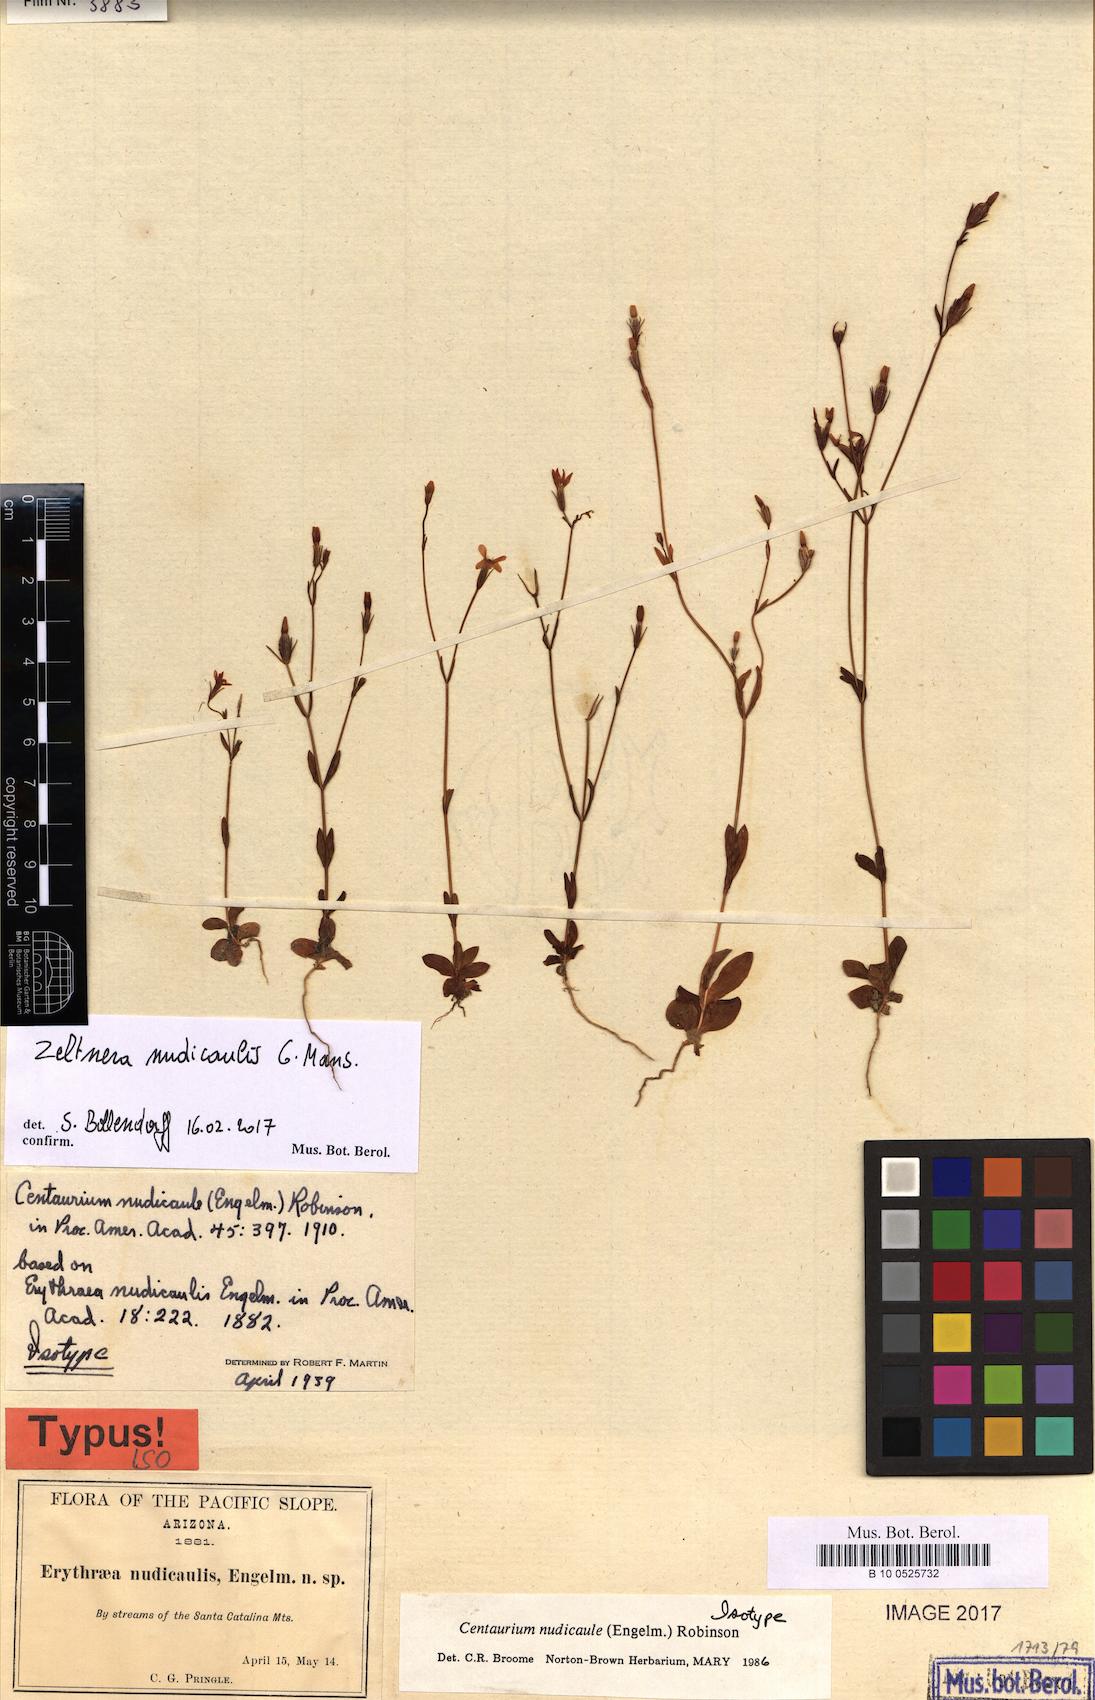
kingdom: Plantae
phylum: Tracheophyta
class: Magnoliopsida
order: Gentianales
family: Gentianaceae
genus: Zeltnera
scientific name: Zeltnera nudicaulis
